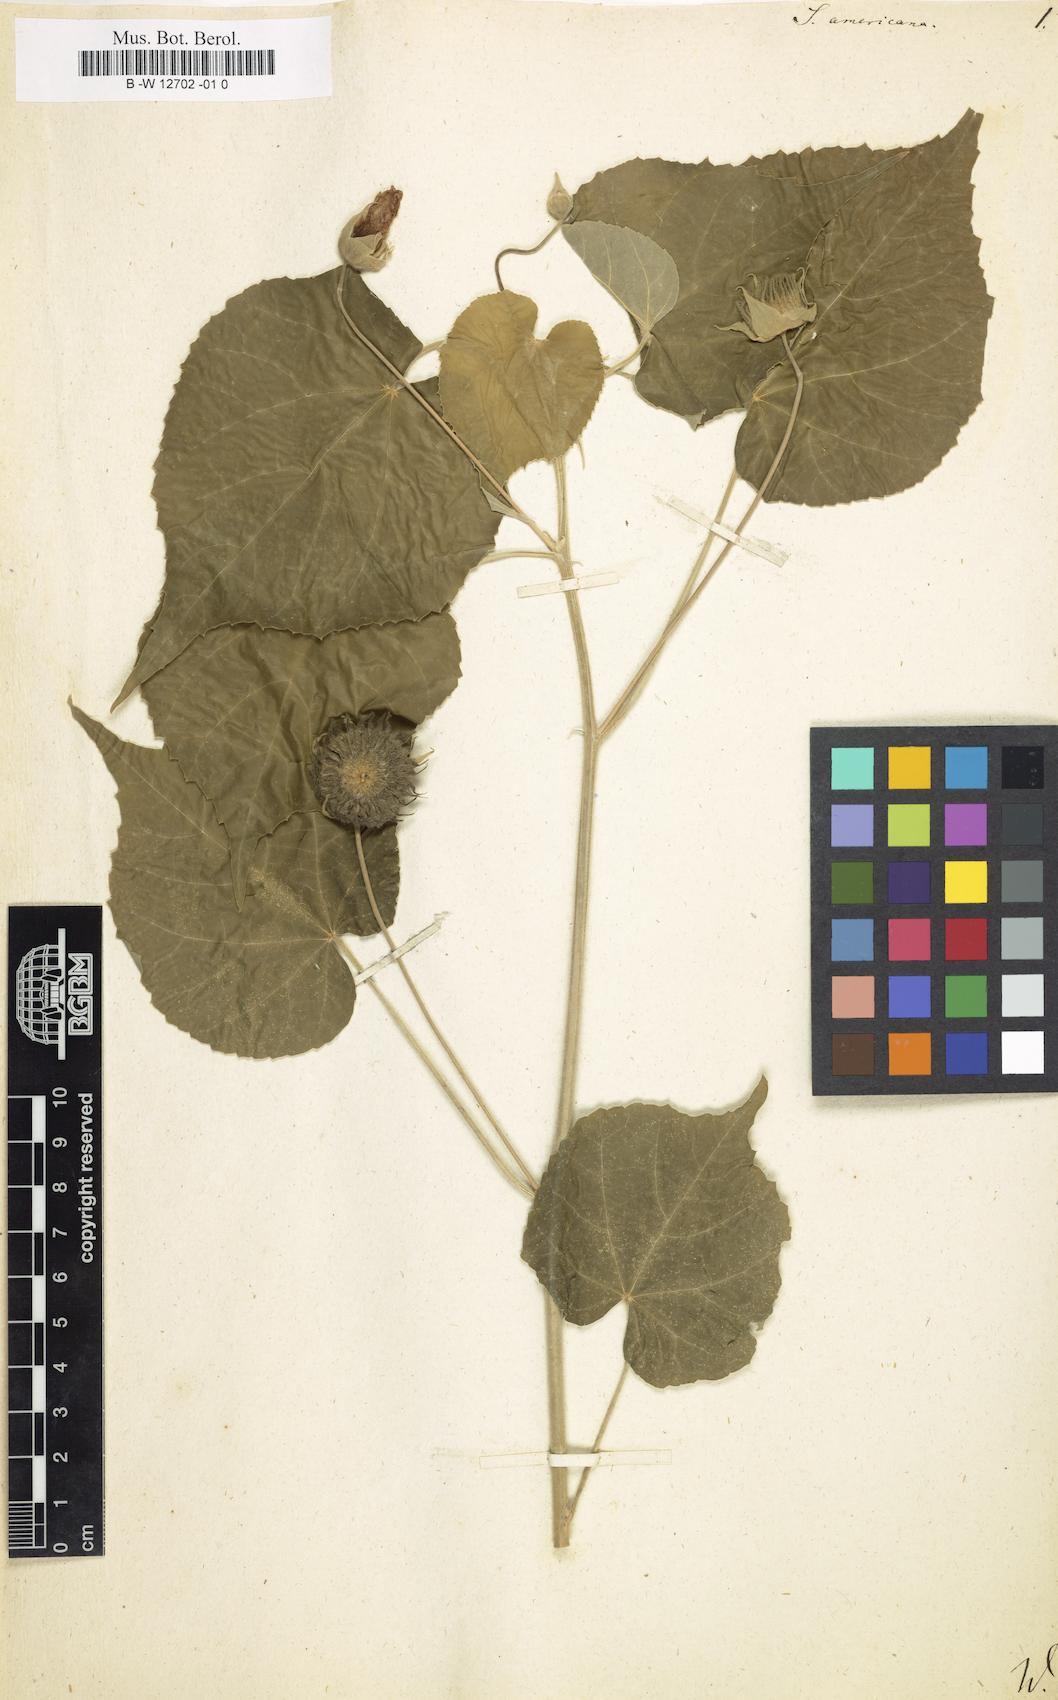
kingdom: Plantae
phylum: Tracheophyta
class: Magnoliopsida
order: Malvales
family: Malvaceae
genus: Abutilon
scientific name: Abutilon abutiloides
